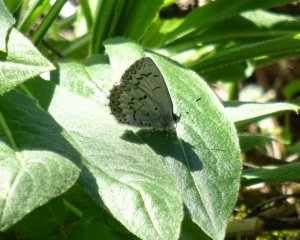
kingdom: Animalia
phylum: Arthropoda
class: Insecta
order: Lepidoptera
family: Lycaenidae
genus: Celastrina
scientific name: Celastrina lucia
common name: Northern Spring Azure
